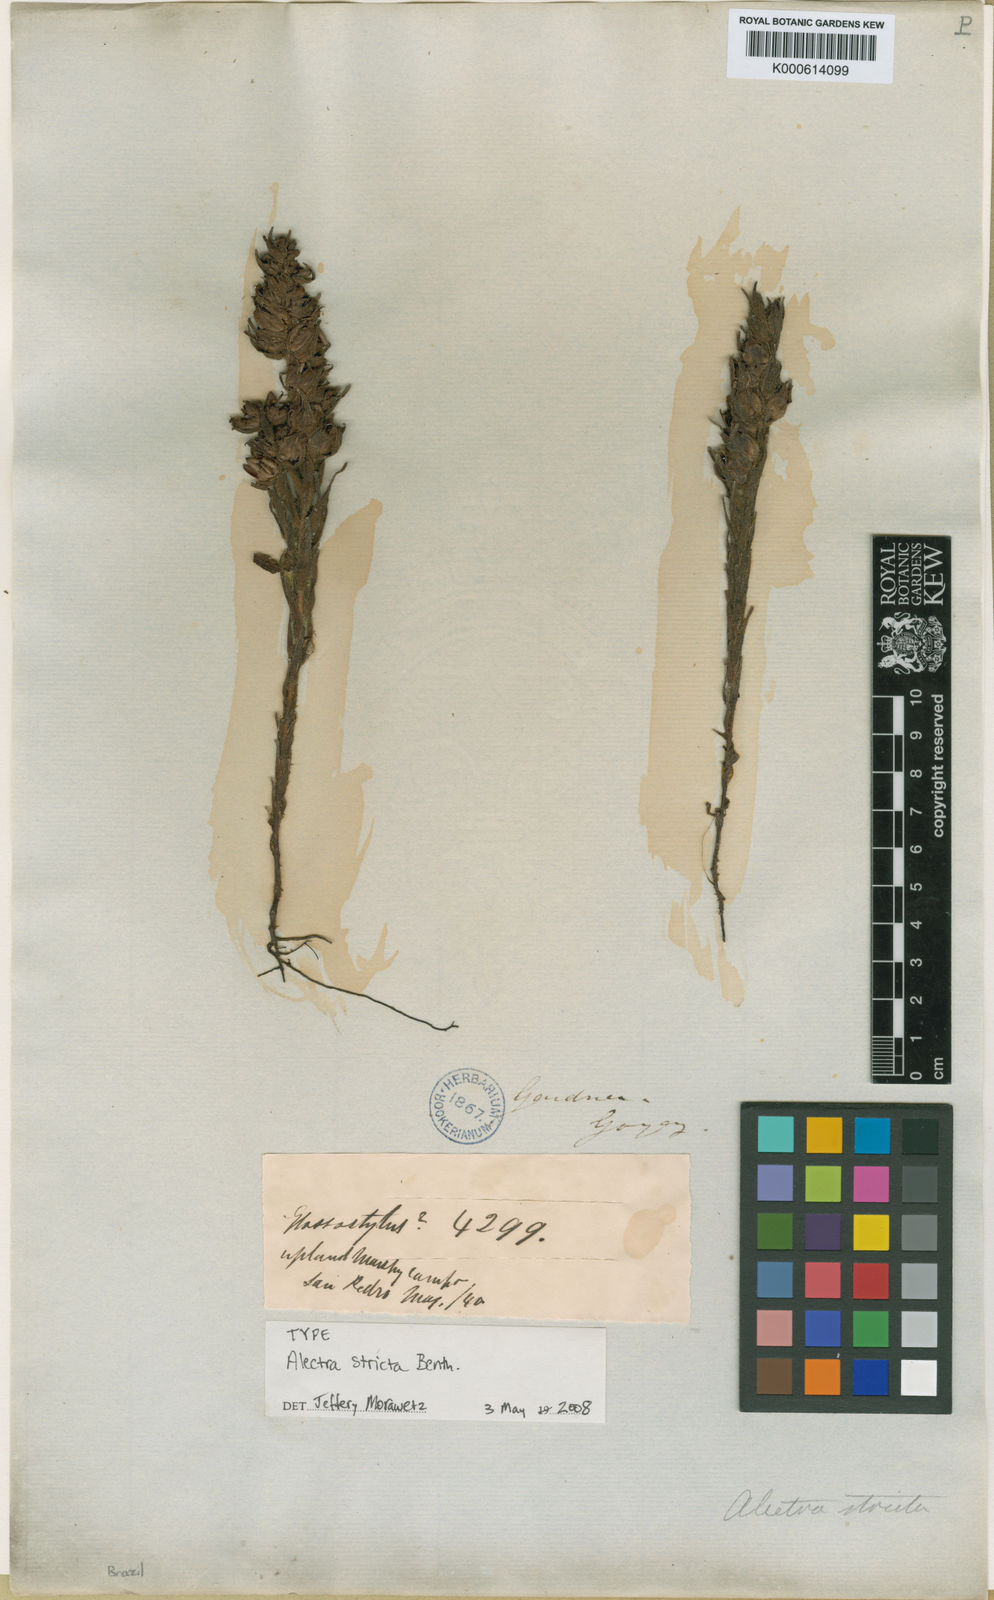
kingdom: Plantae
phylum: Tracheophyta
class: Magnoliopsida
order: Lamiales
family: Orobanchaceae
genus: Melasma
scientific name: Melasma strictum
